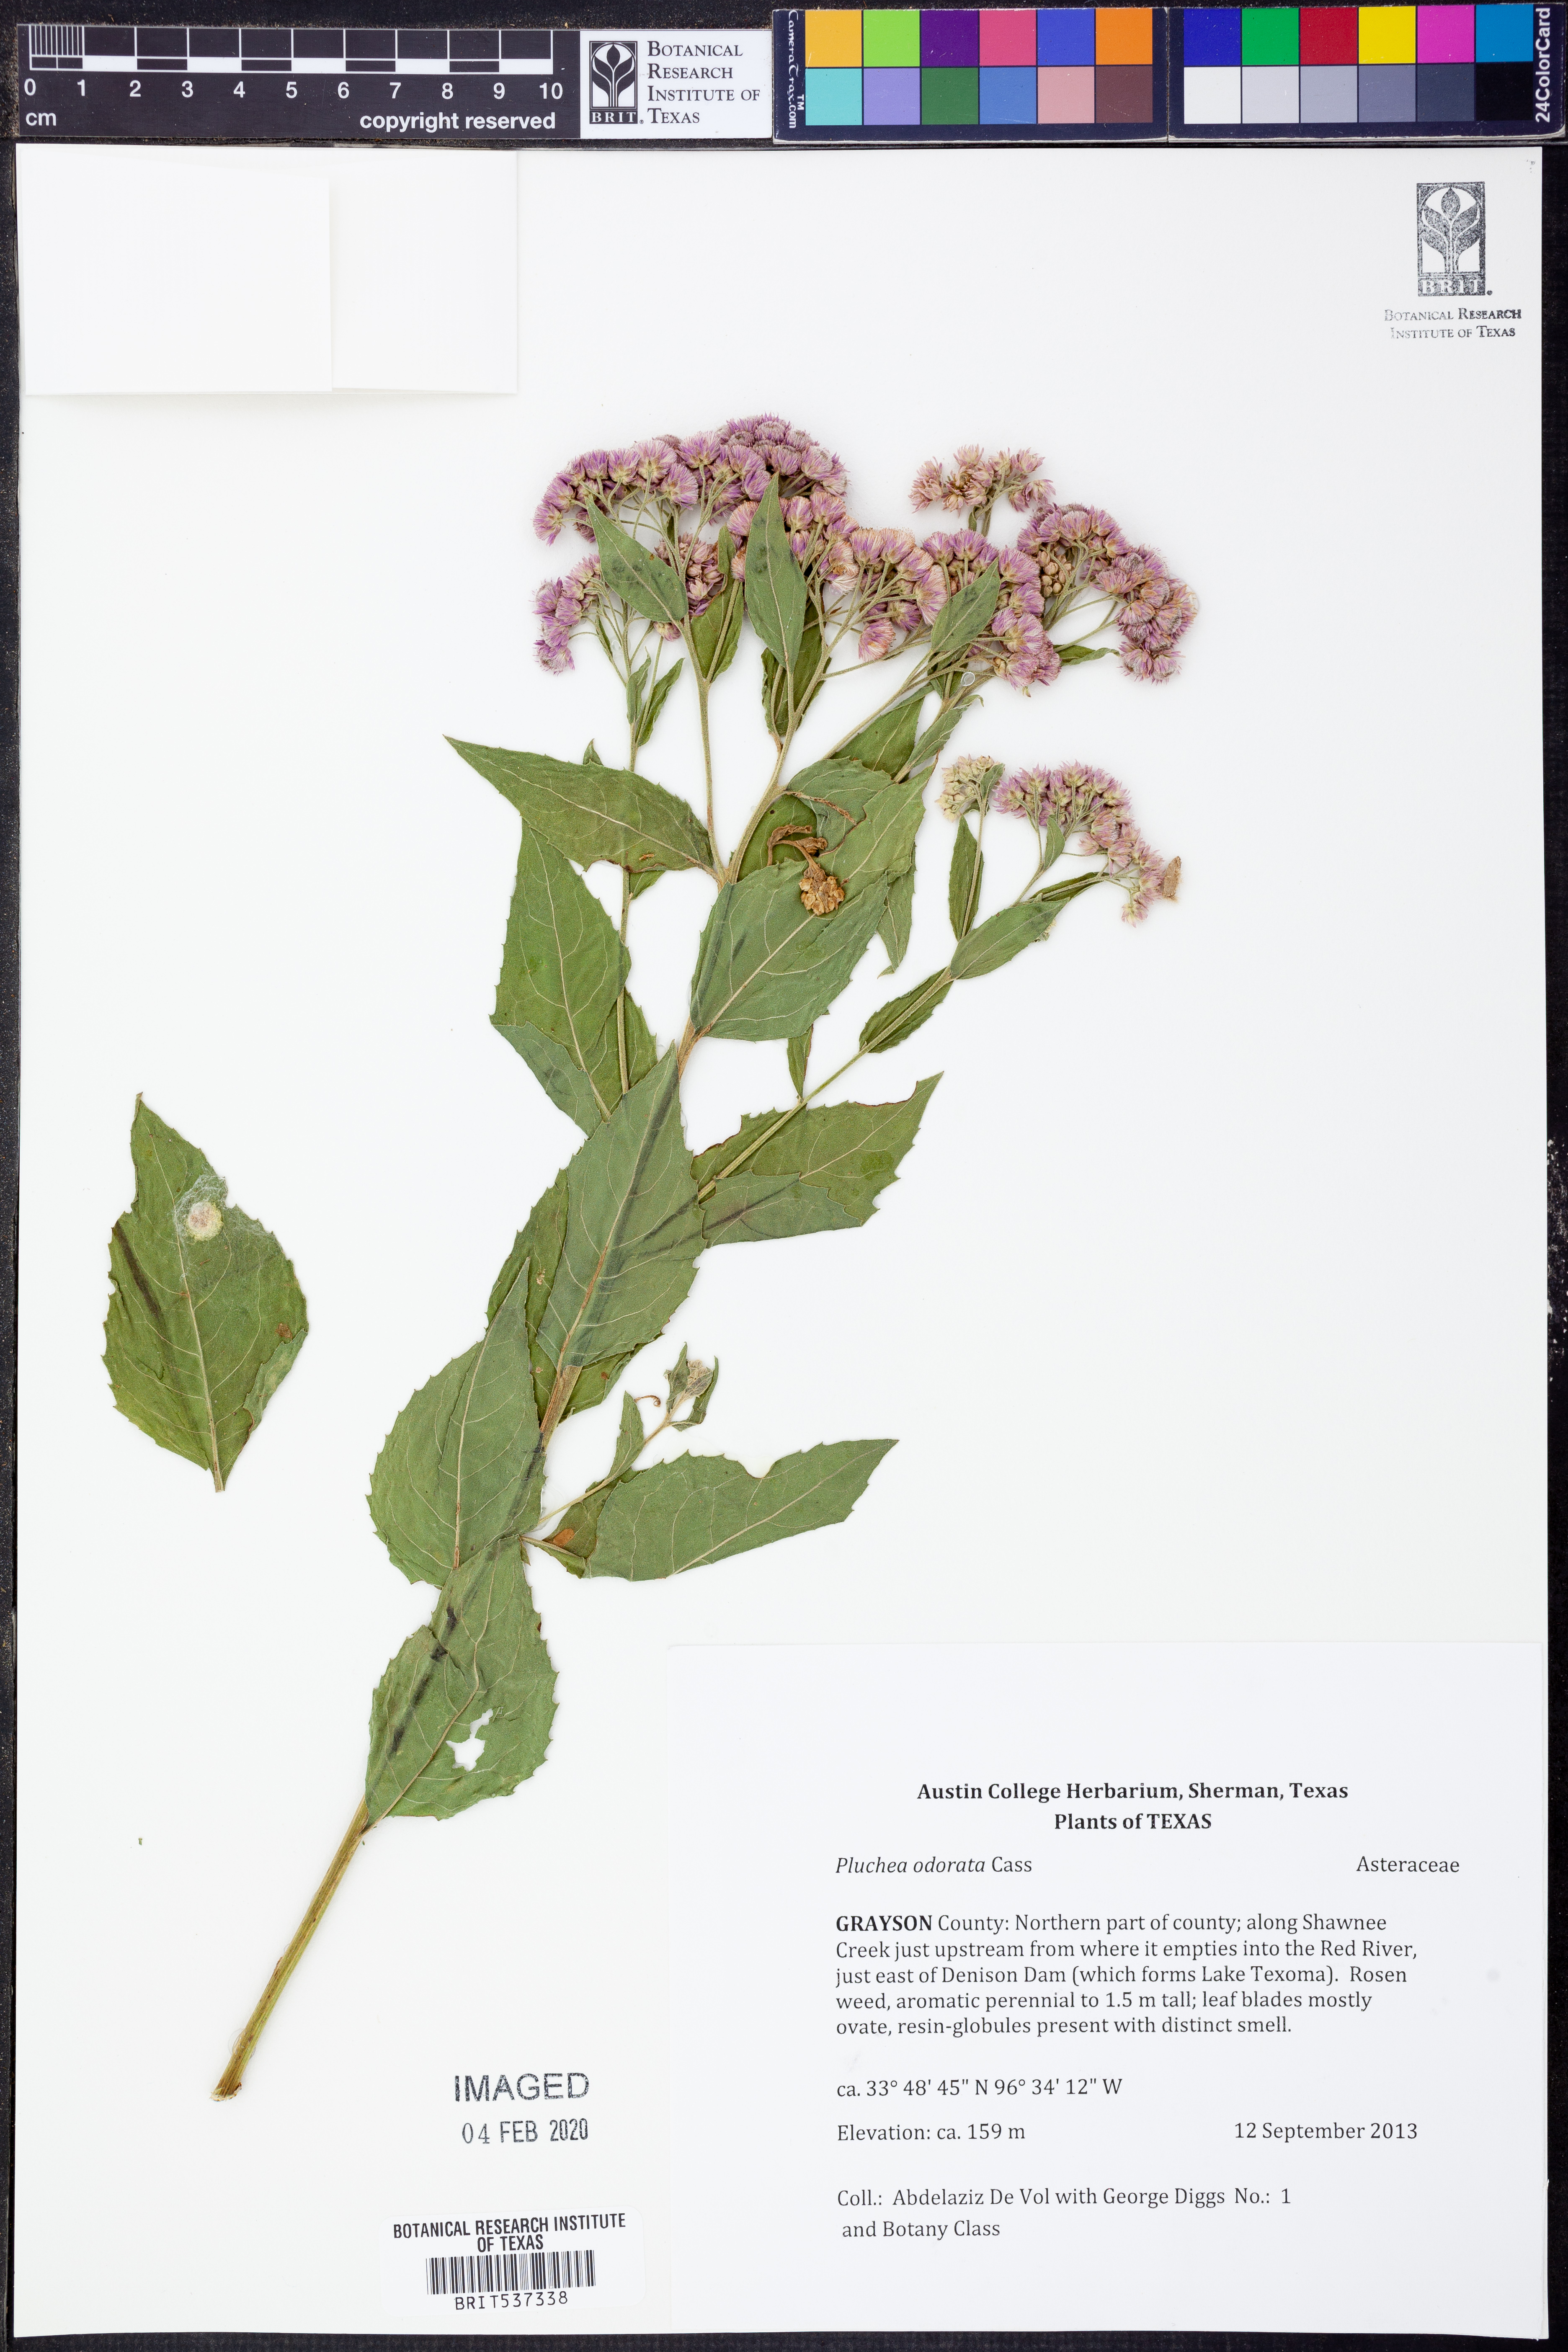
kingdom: Plantae
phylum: Tracheophyta
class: Magnoliopsida
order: Asterales
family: Asteraceae
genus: Pluchea
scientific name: Pluchea camphorata
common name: Camphor pluchea
